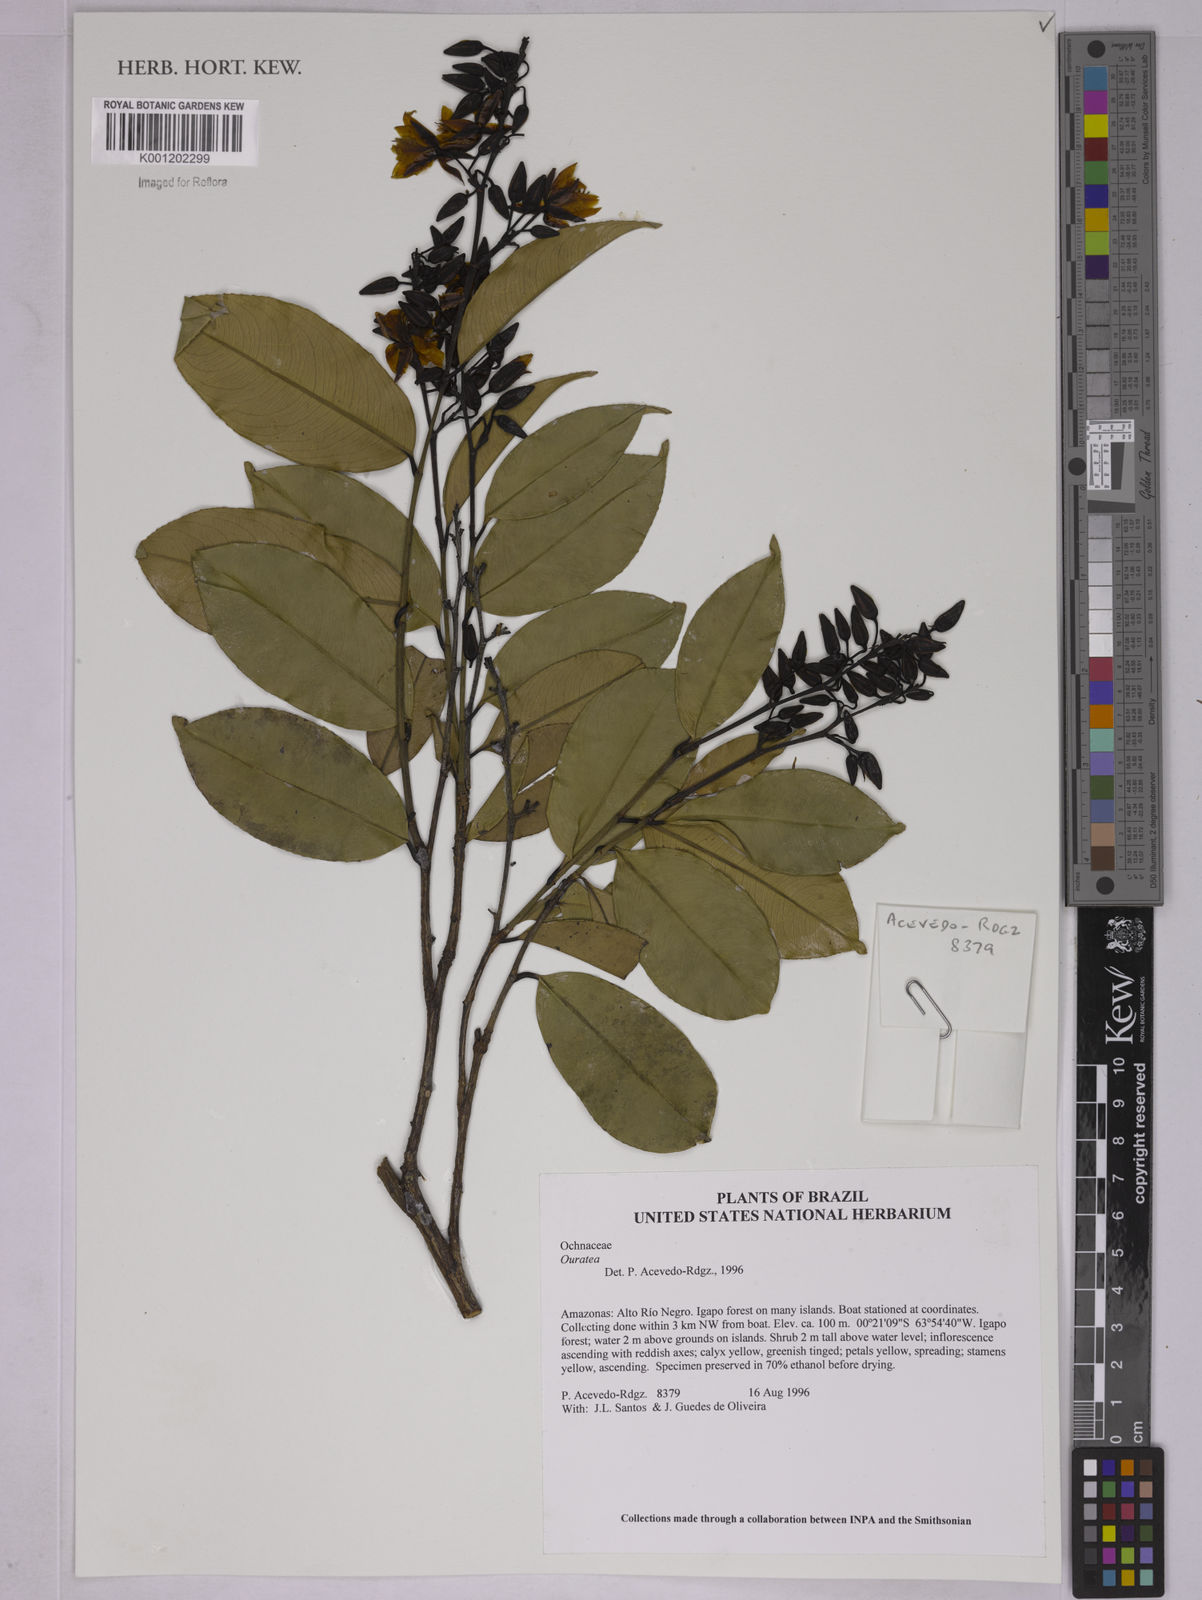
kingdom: Plantae
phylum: Tracheophyta
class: Magnoliopsida
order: Malpighiales
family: Ochnaceae
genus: Ouratea
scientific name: Ouratea
